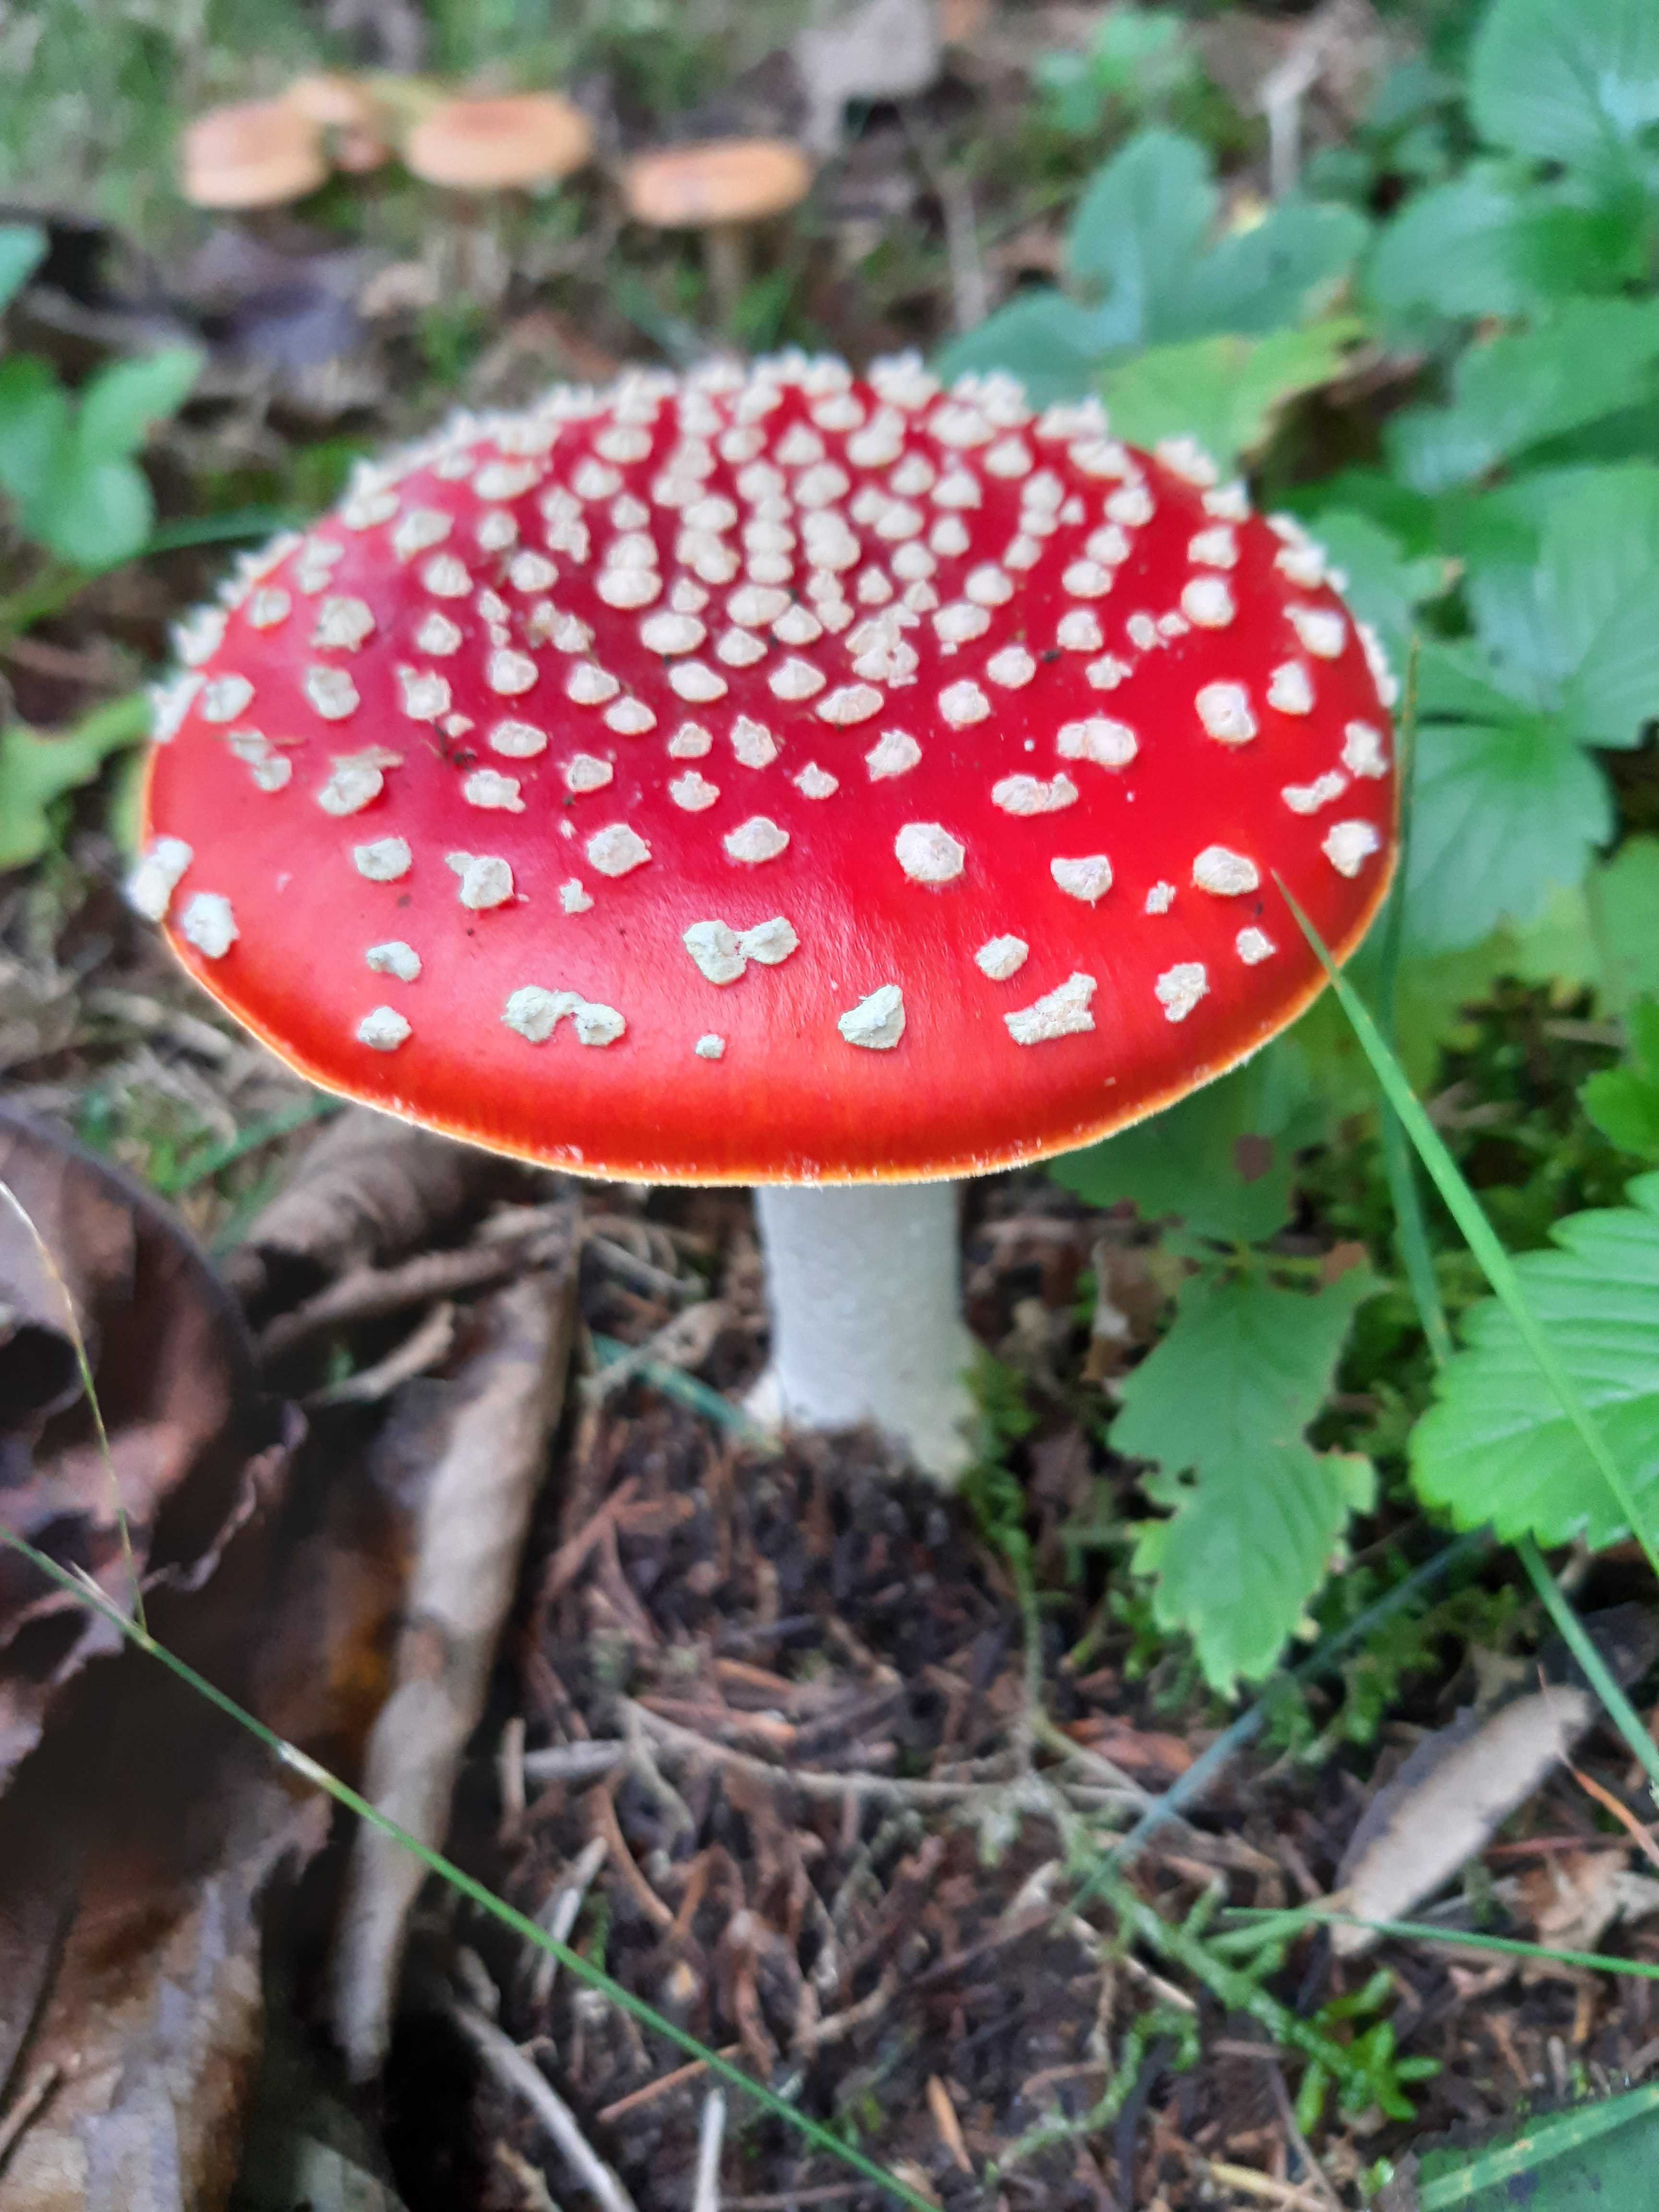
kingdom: Fungi
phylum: Basidiomycota
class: Agaricomycetes
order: Agaricales
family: Amanitaceae
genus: Amanita
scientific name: Amanita muscaria
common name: rød fluesvamp
